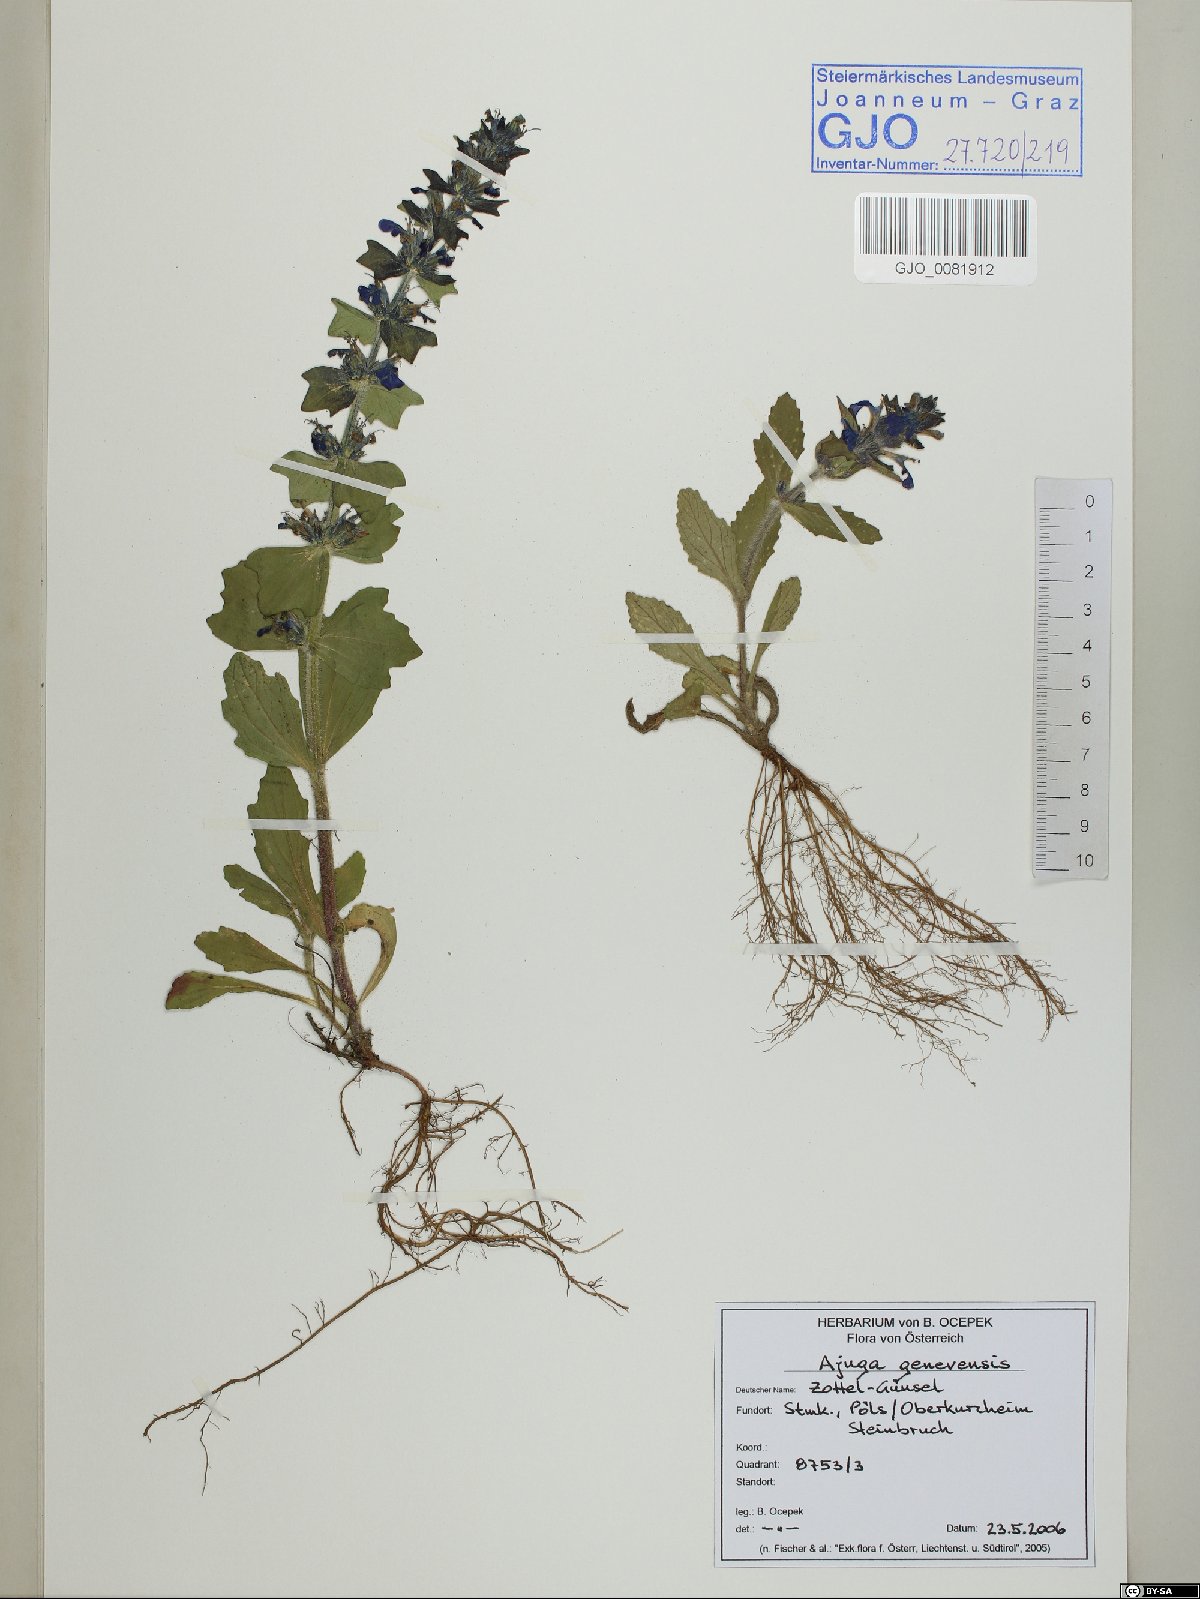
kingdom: Plantae
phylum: Tracheophyta
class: Magnoliopsida
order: Lamiales
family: Lamiaceae
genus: Ajuga
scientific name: Ajuga genevensis
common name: Blue bugle
